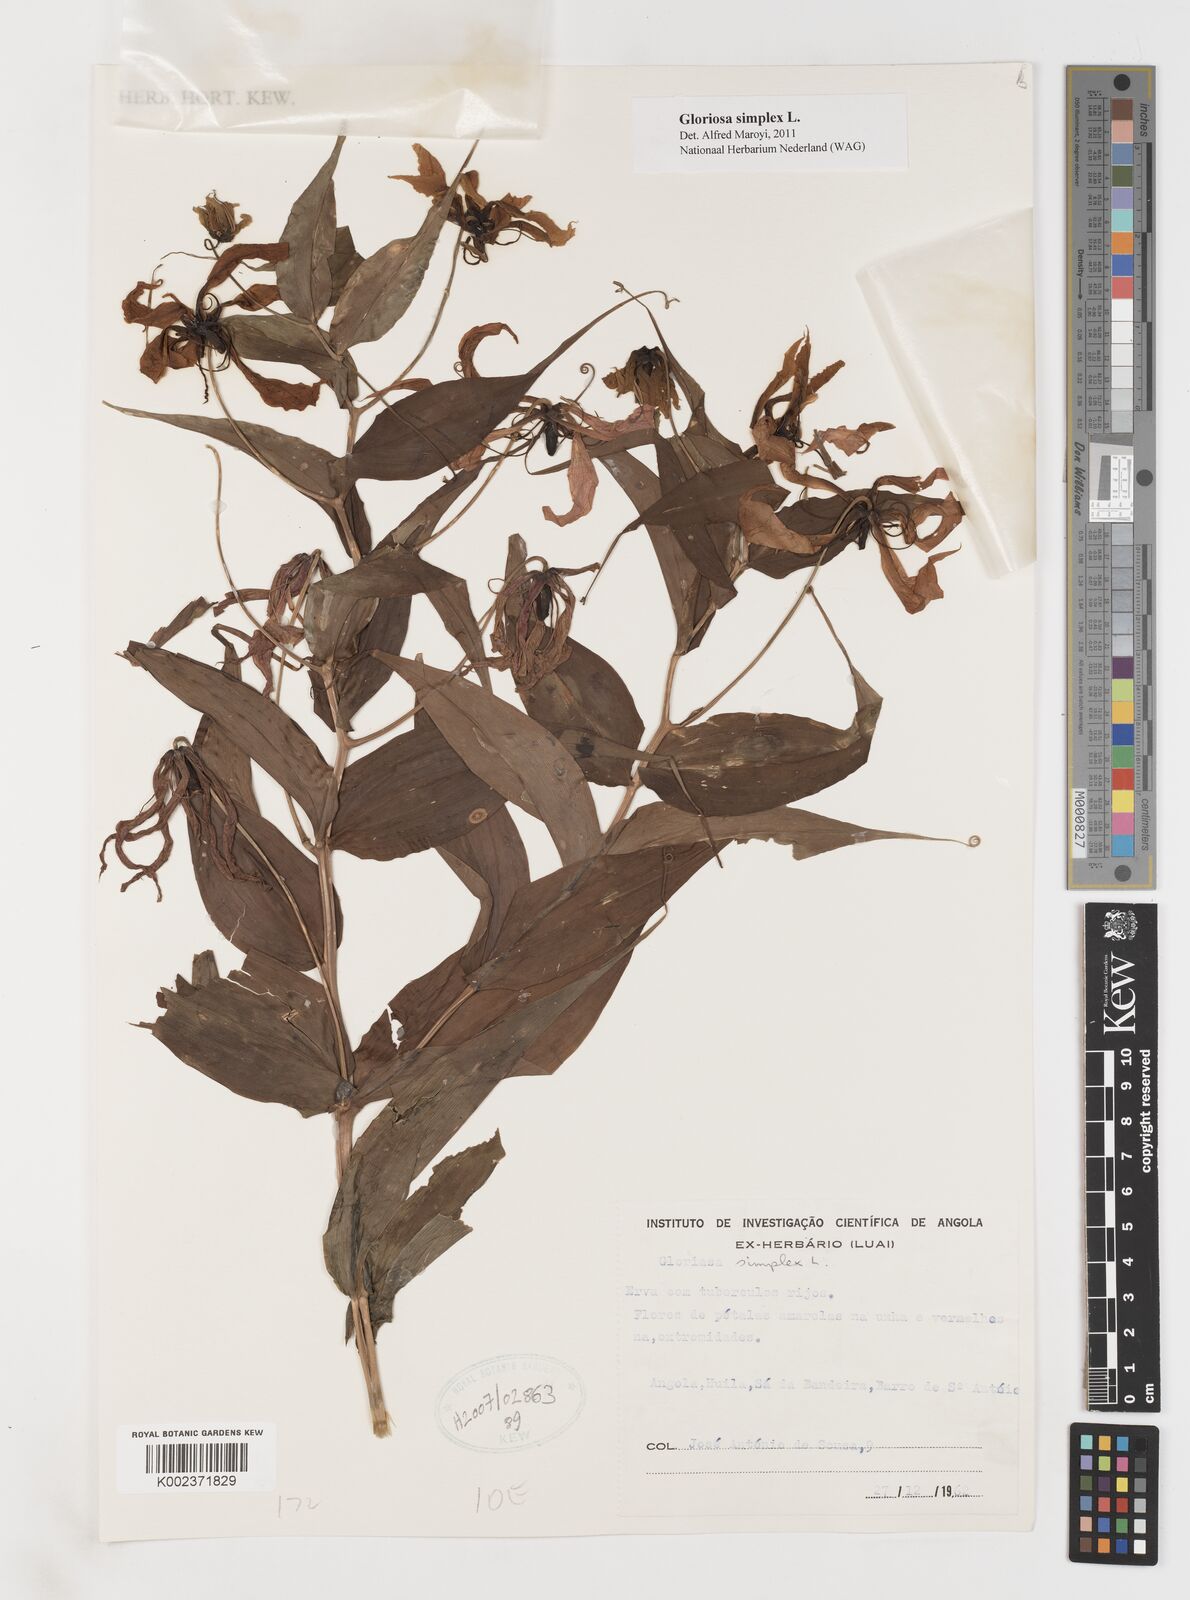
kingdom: Plantae
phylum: Tracheophyta
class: Liliopsida
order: Liliales
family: Colchicaceae
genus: Gloriosa
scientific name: Gloriosa simplex
